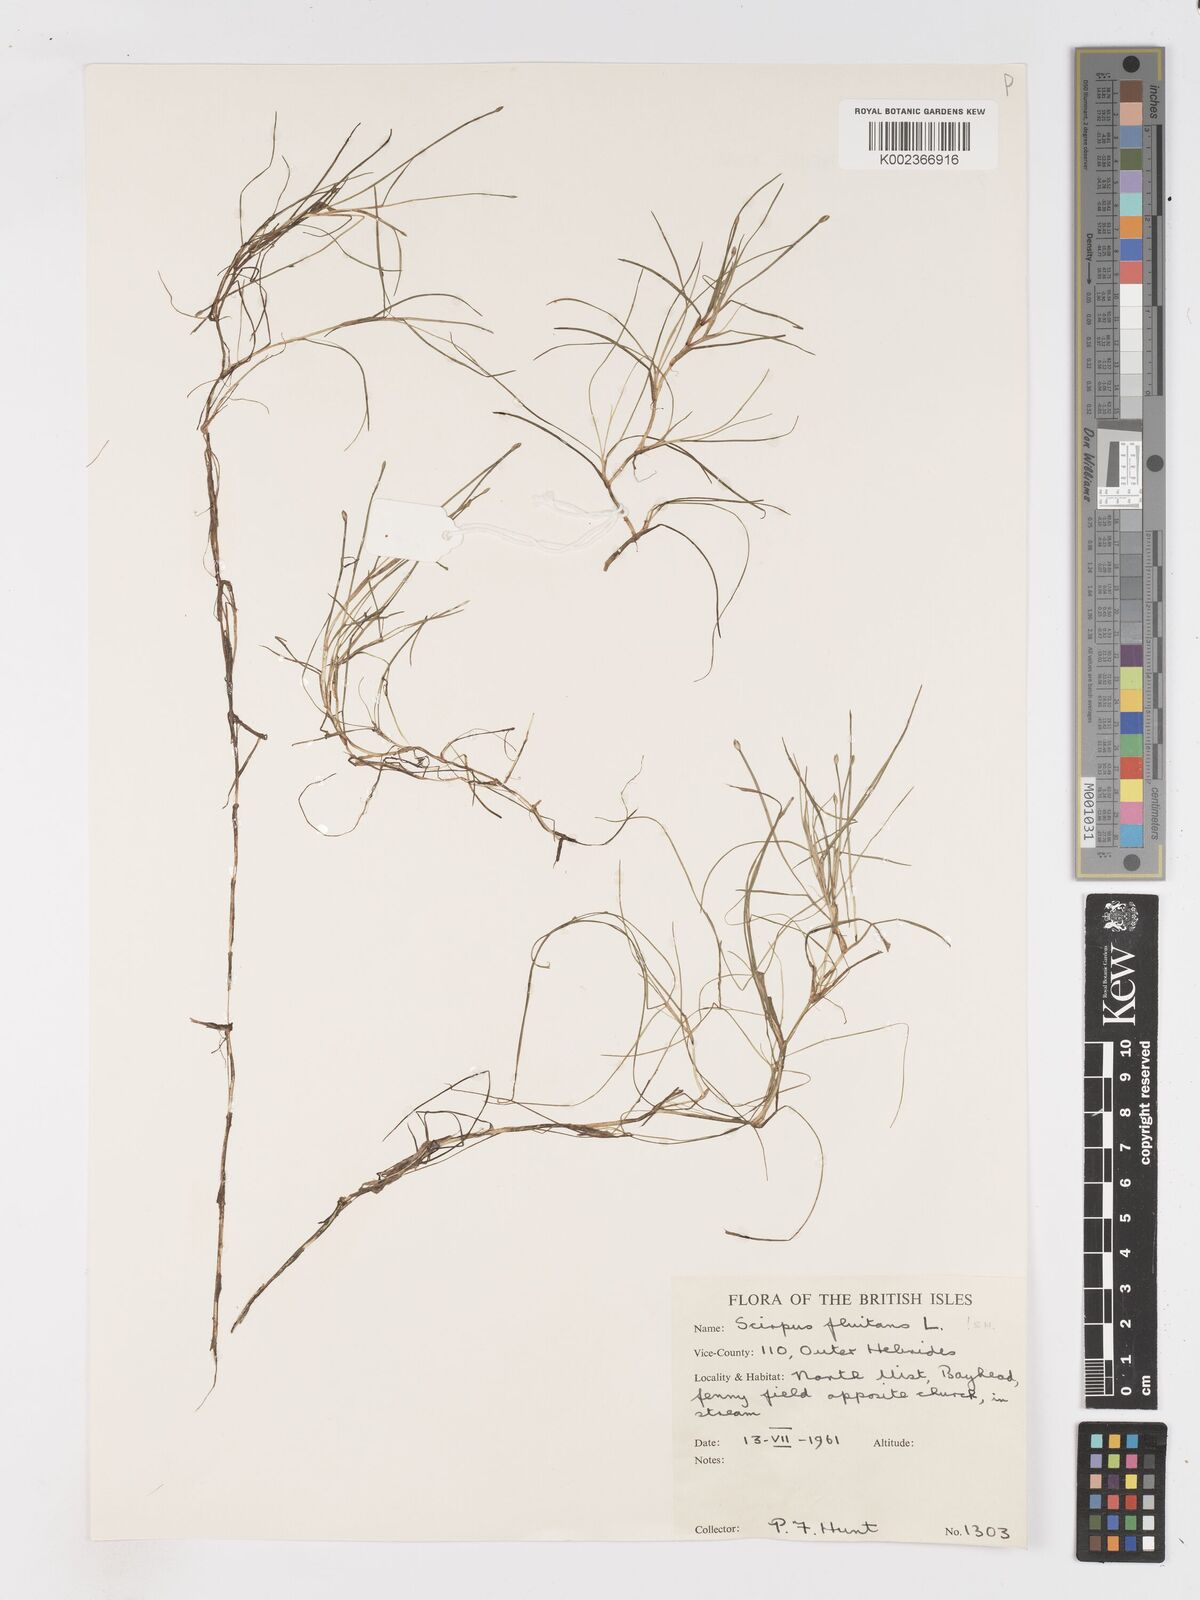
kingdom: Plantae
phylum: Tracheophyta
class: Liliopsida
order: Poales
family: Cyperaceae
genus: Isolepis
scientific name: Isolepis fluitans
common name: Floating club-rush
